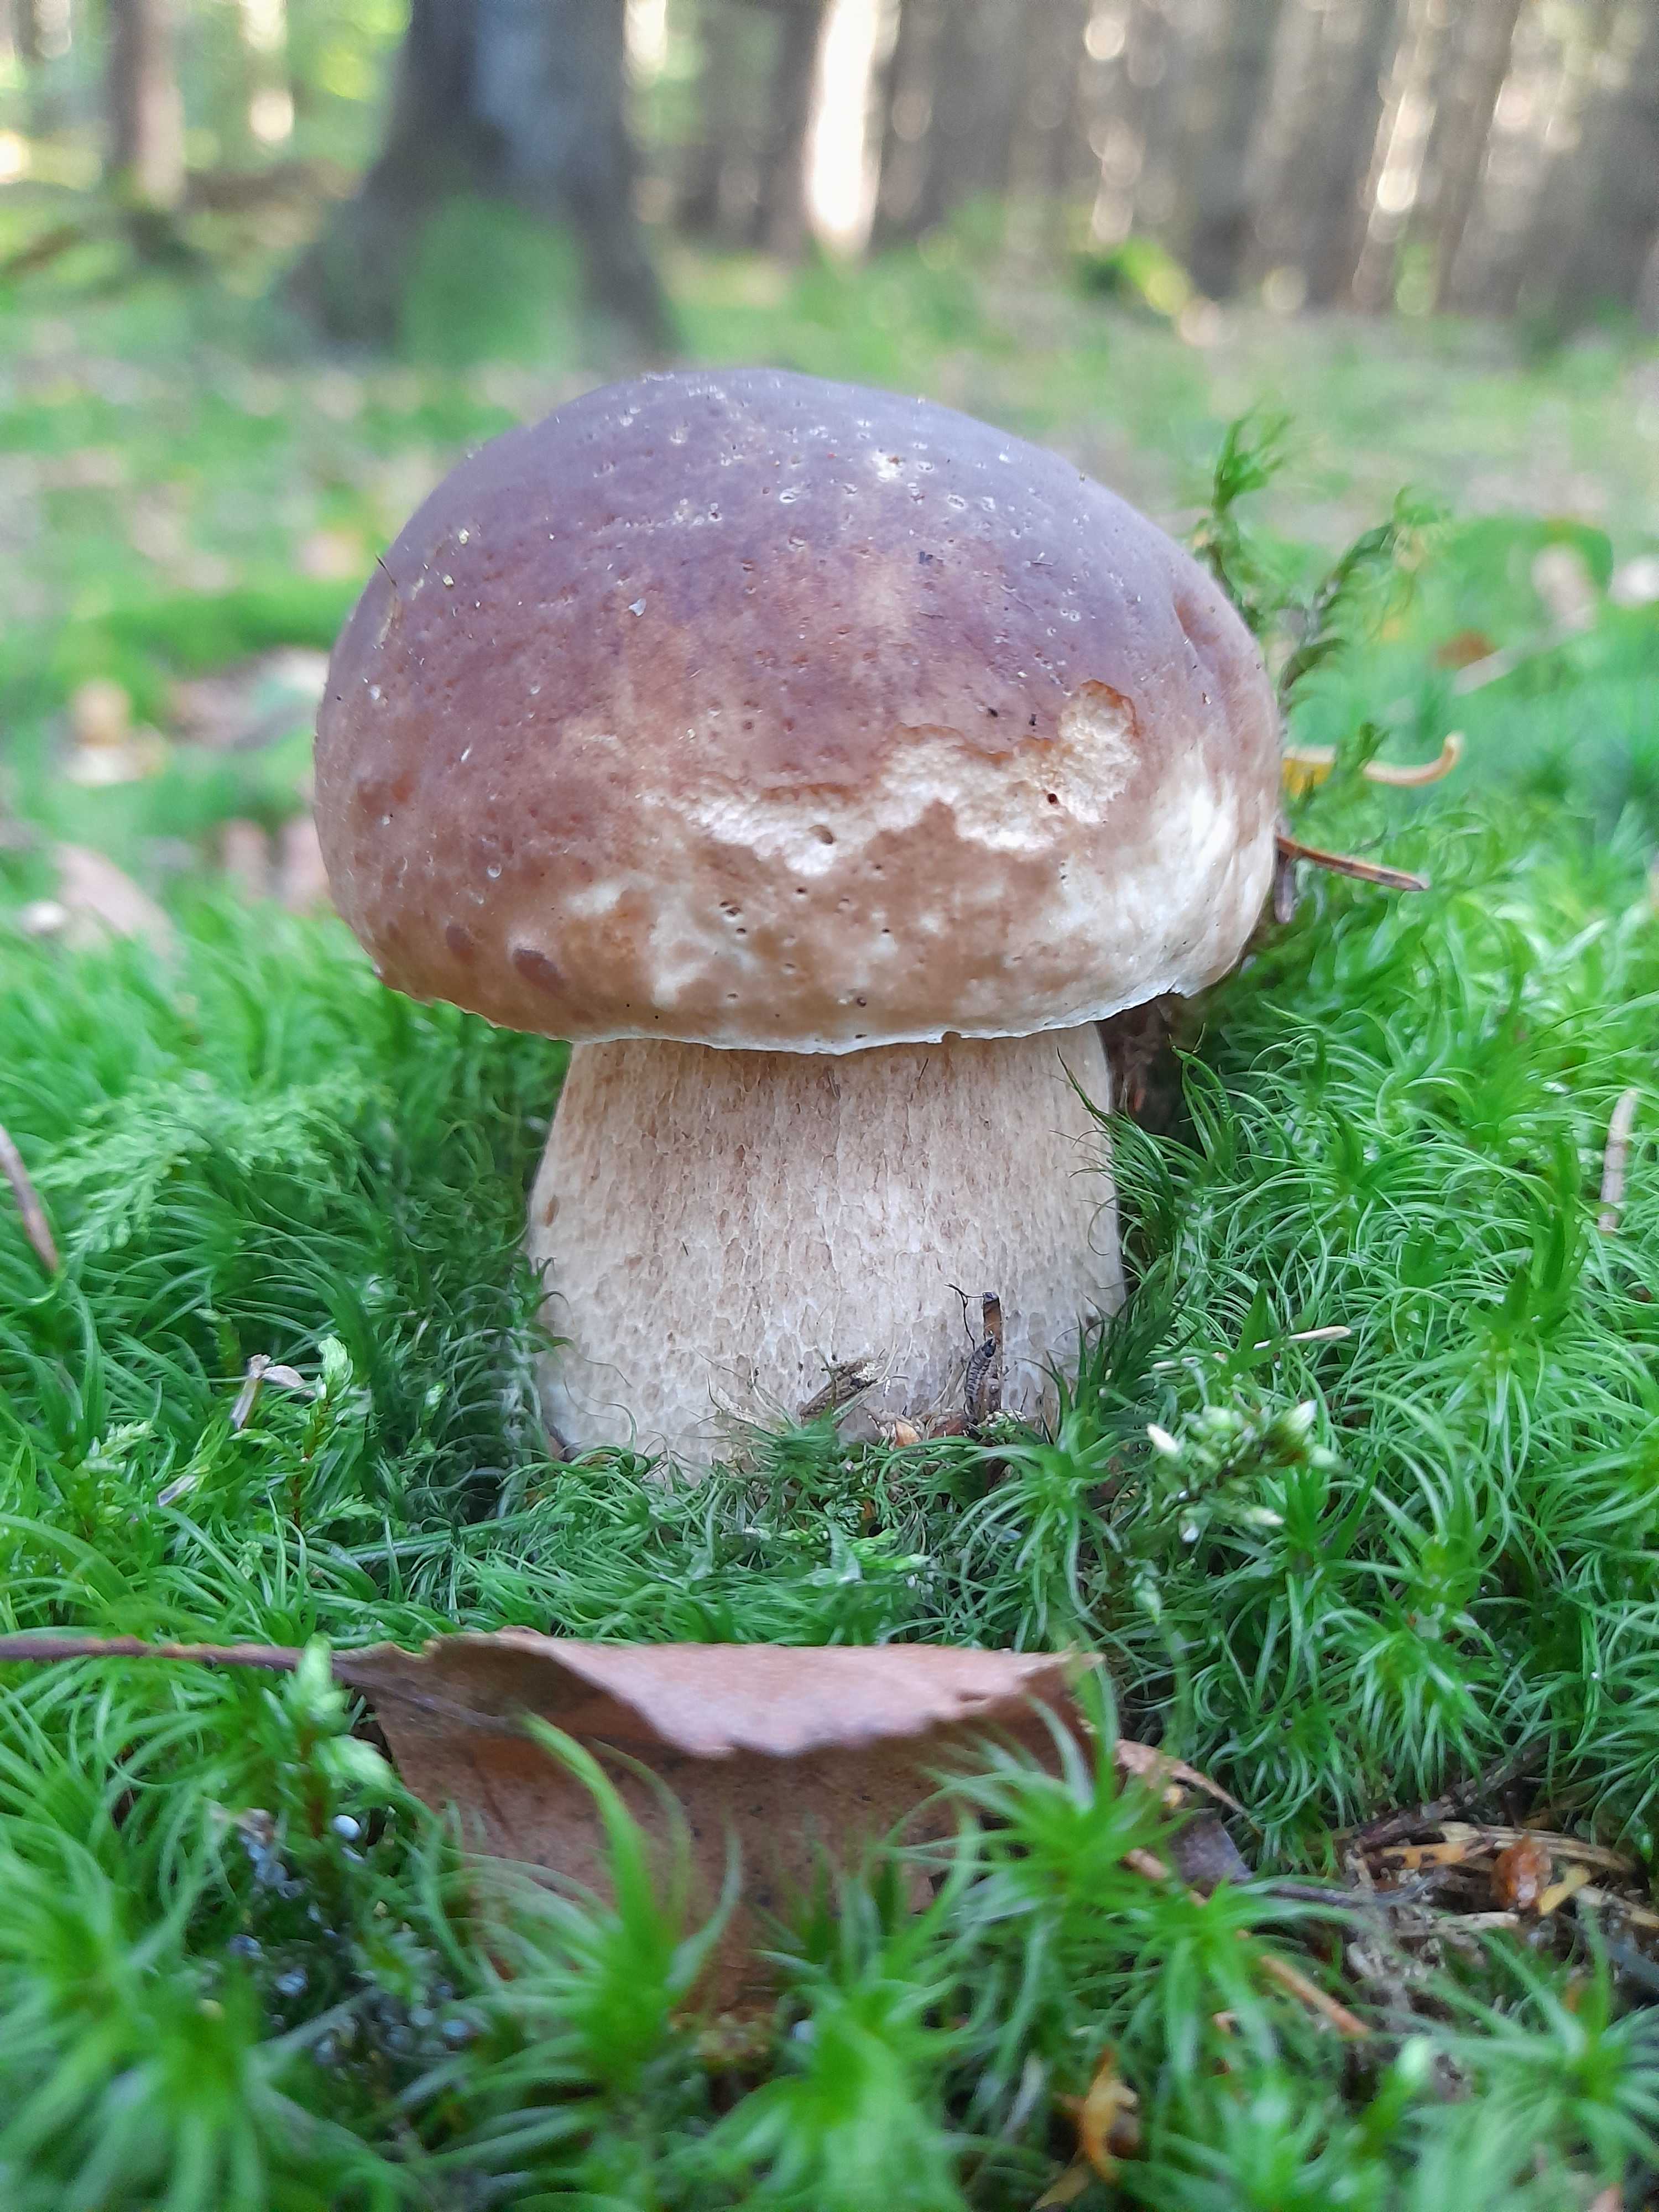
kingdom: Fungi
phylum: Basidiomycota
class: Agaricomycetes
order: Boletales
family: Boletaceae
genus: Boletus
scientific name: Boletus edulis
